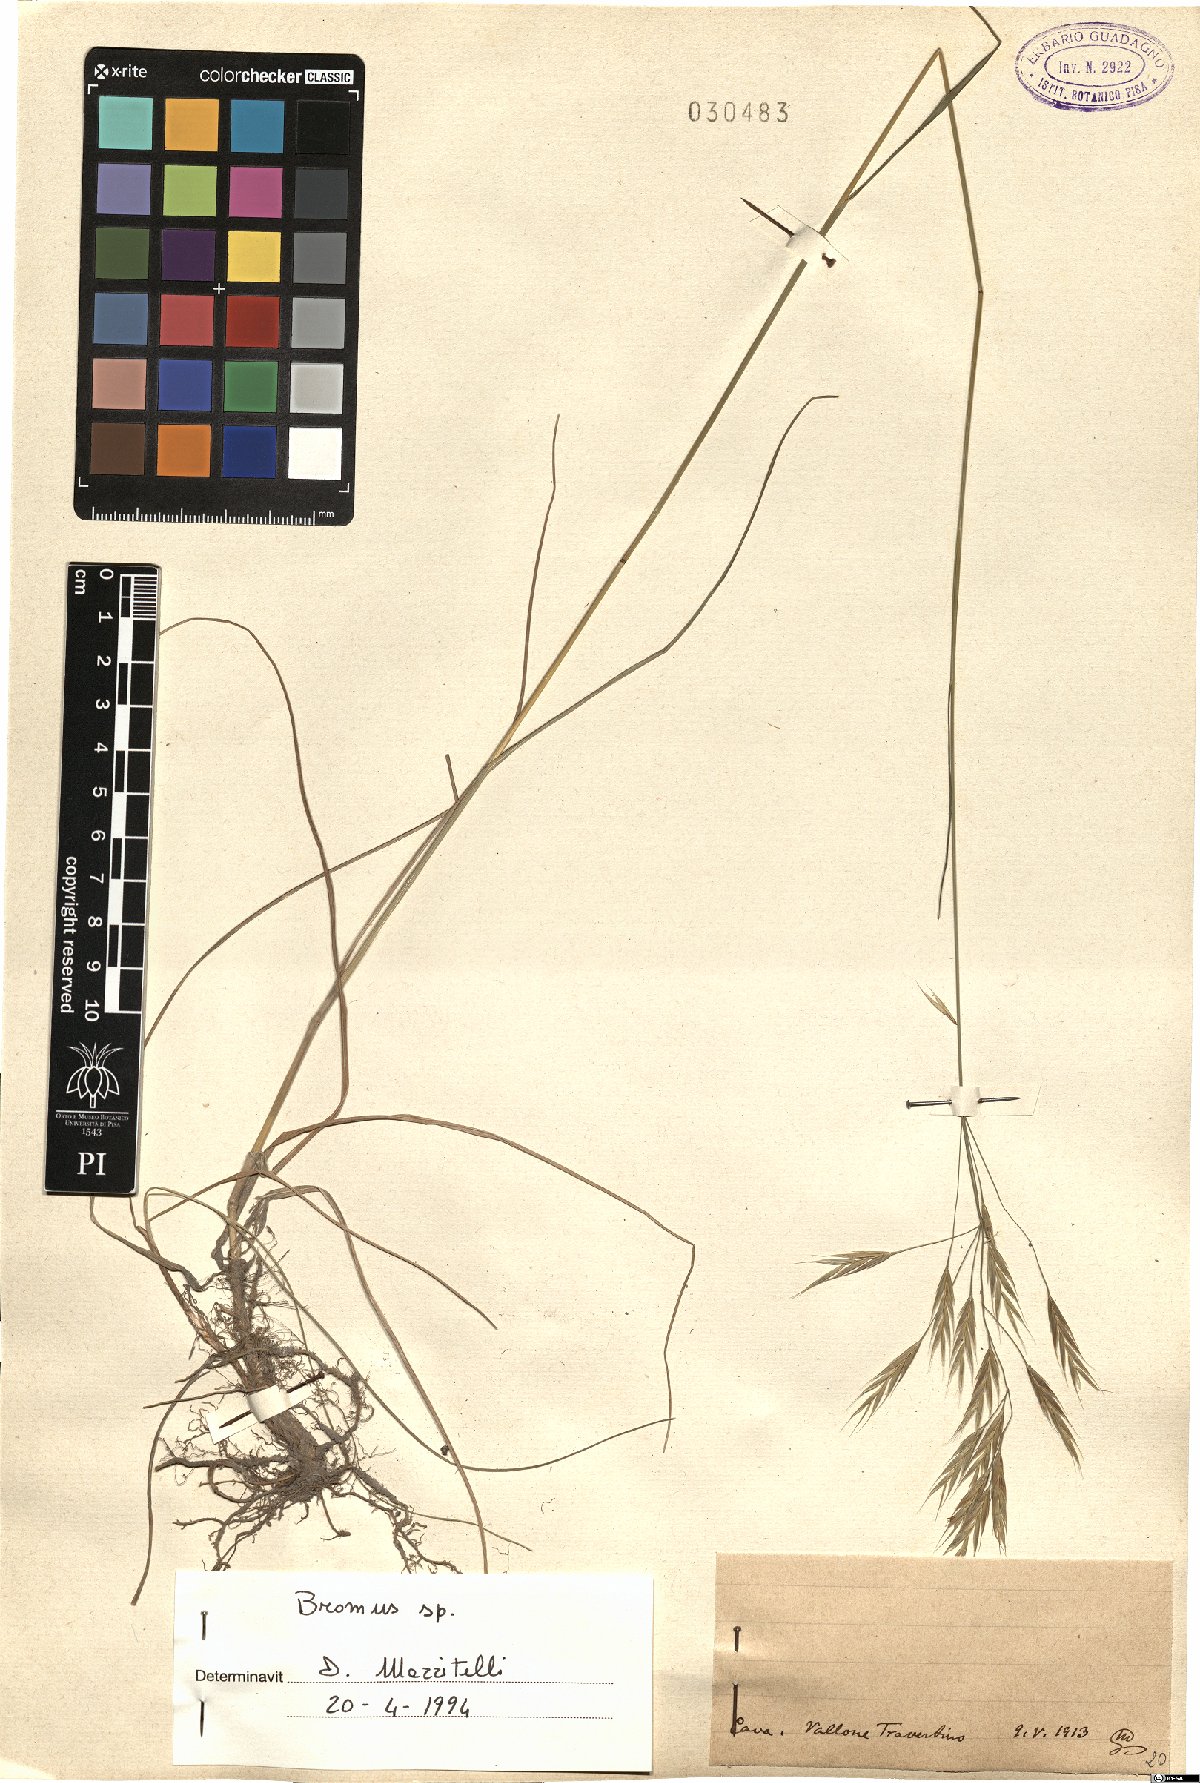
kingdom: Plantae
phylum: Tracheophyta
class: Liliopsida
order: Poales
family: Poaceae
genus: Bromus
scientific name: Bromus
